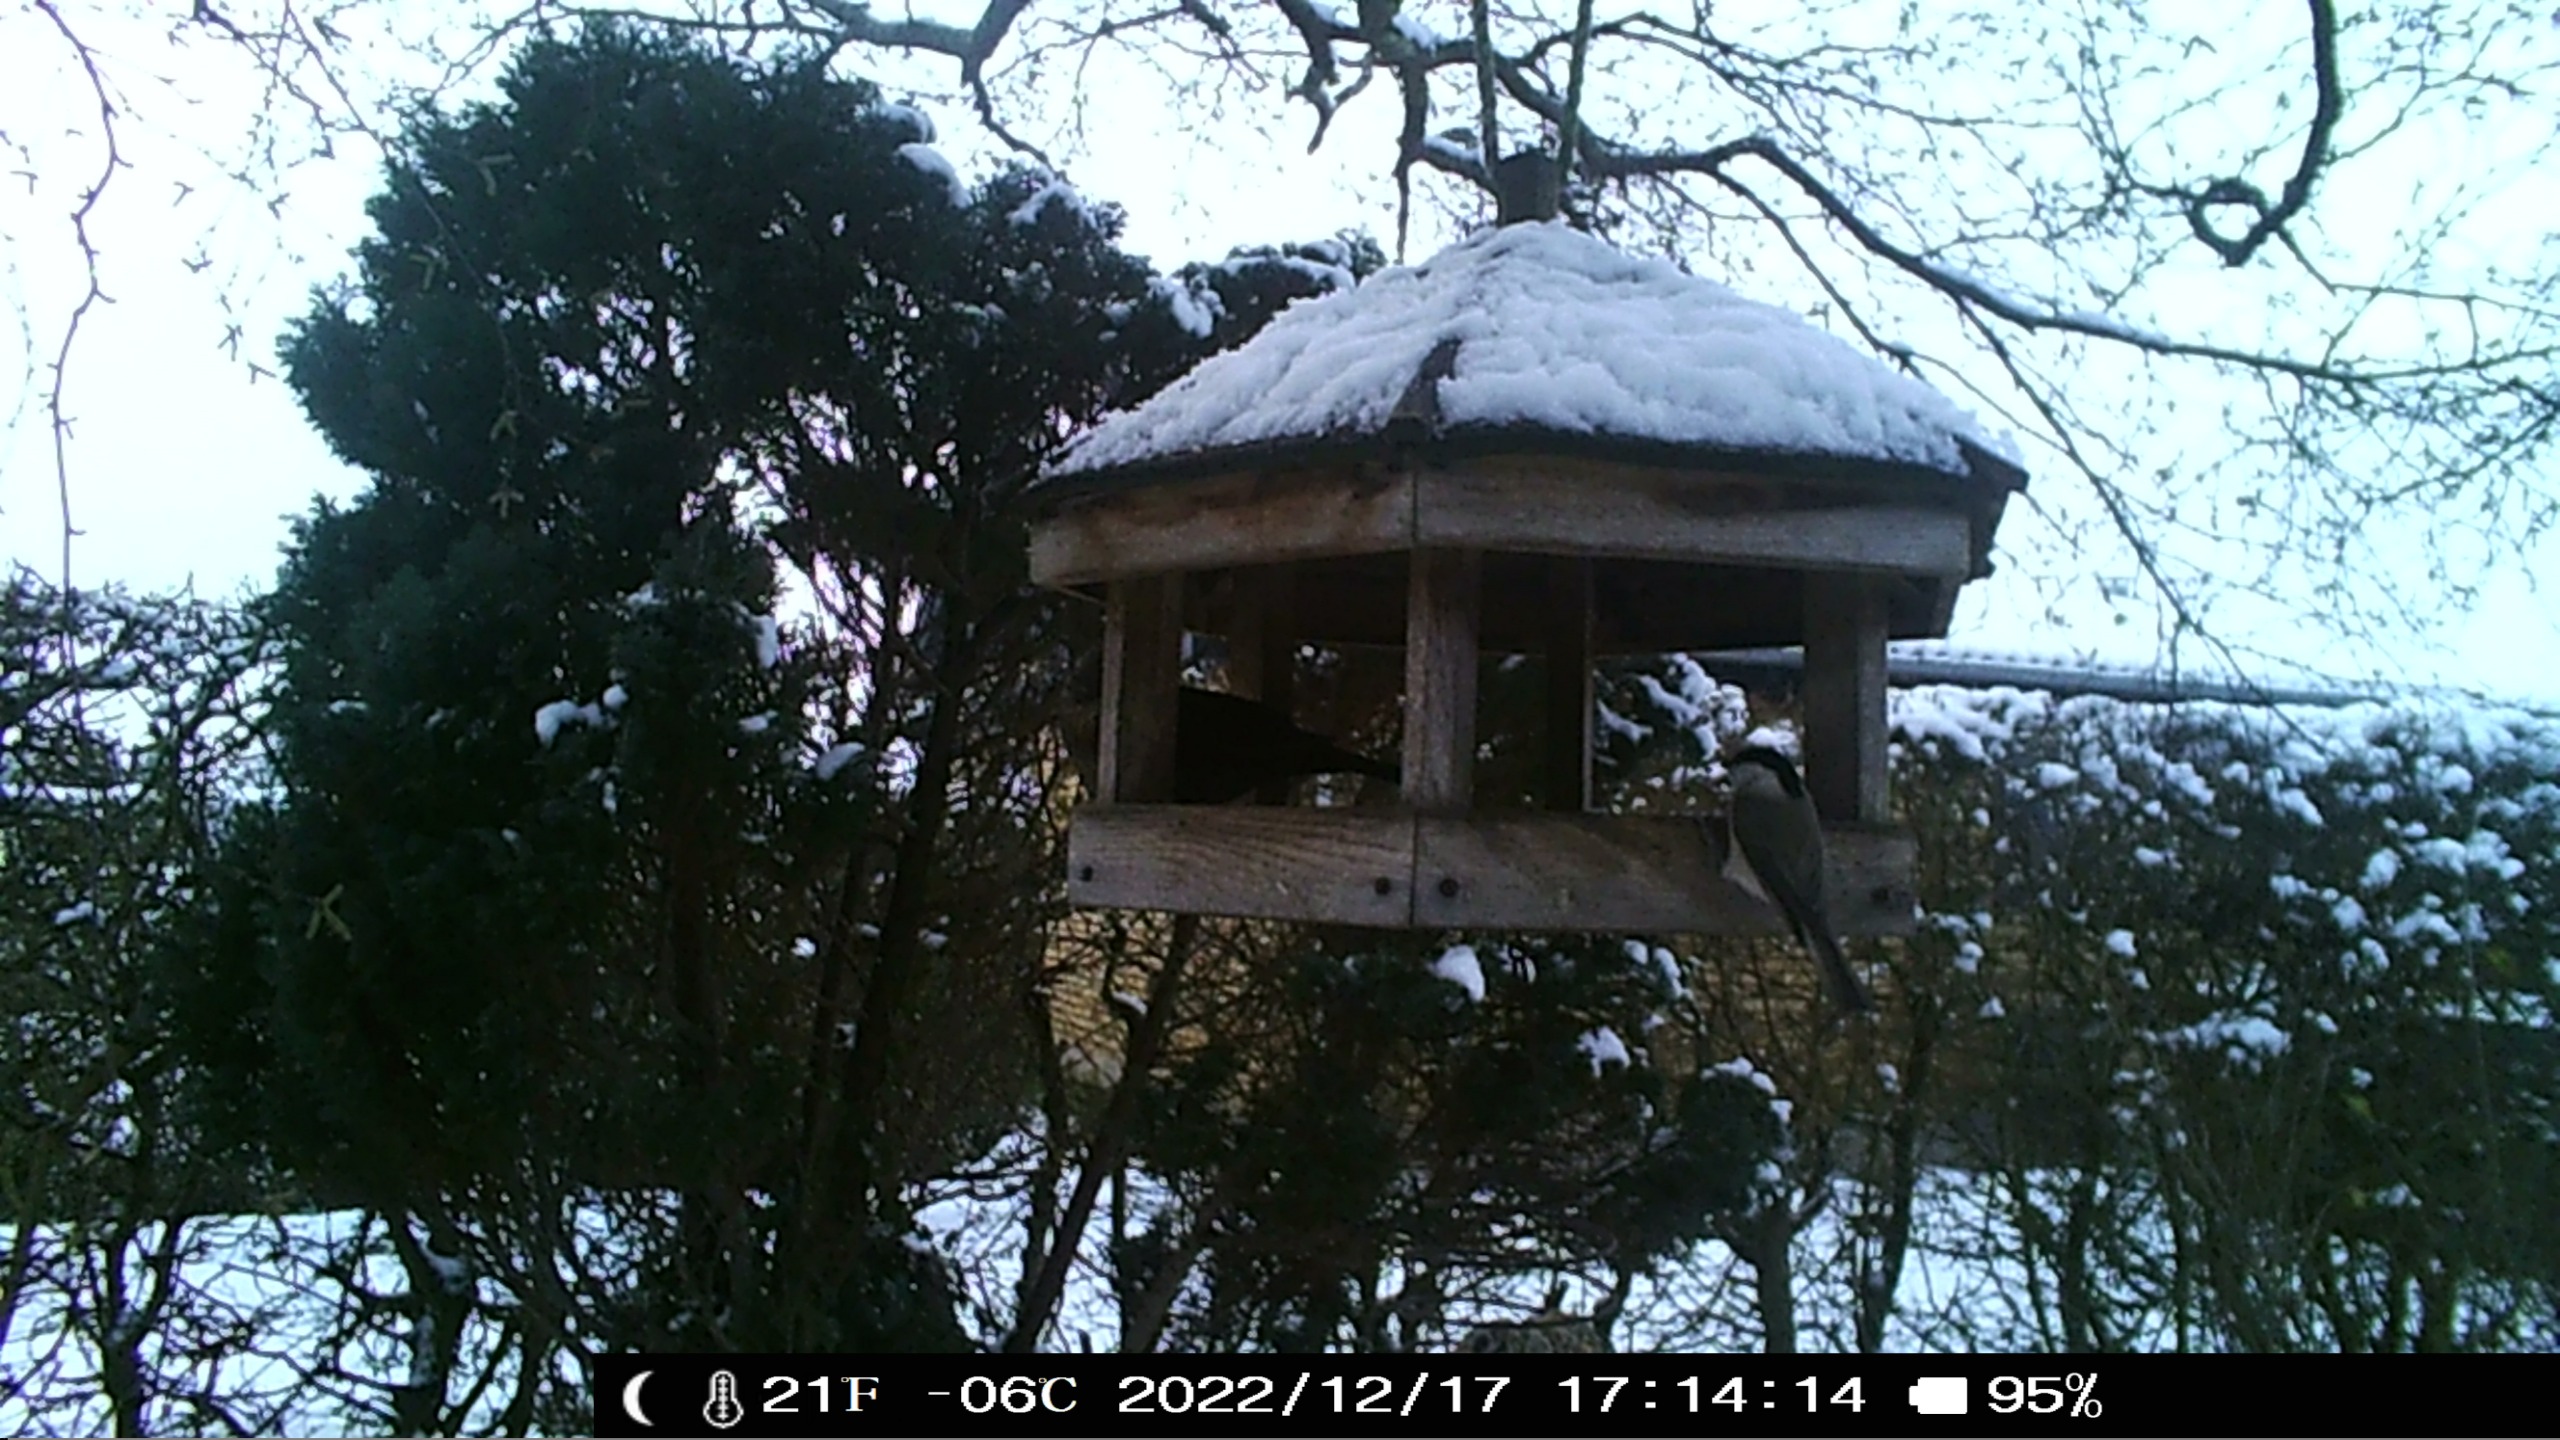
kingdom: Animalia
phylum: Chordata
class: Aves
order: Passeriformes
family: Paridae
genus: Poecile
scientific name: Poecile palustris
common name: Sumpmejse
